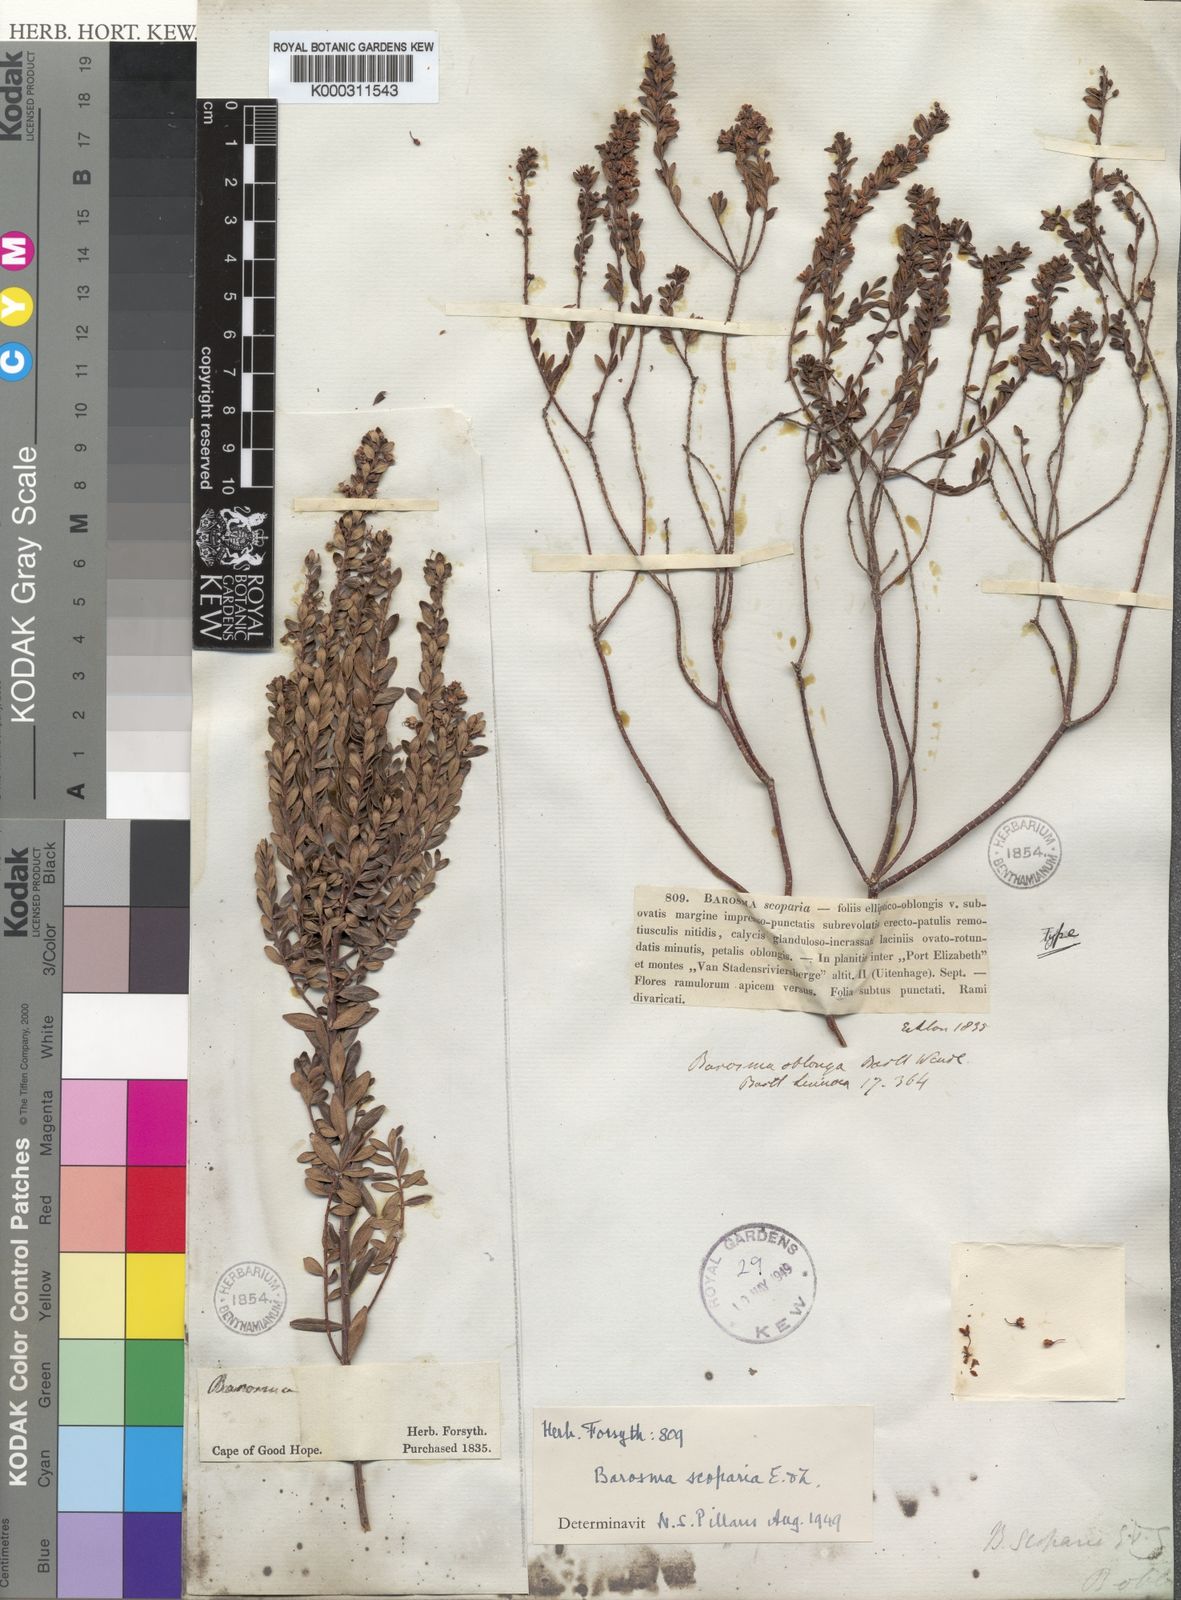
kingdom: Plantae
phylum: Tracheophyta
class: Magnoliopsida
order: Sapindales
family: Rutaceae
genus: Agathosma
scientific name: Agathosma ovata
